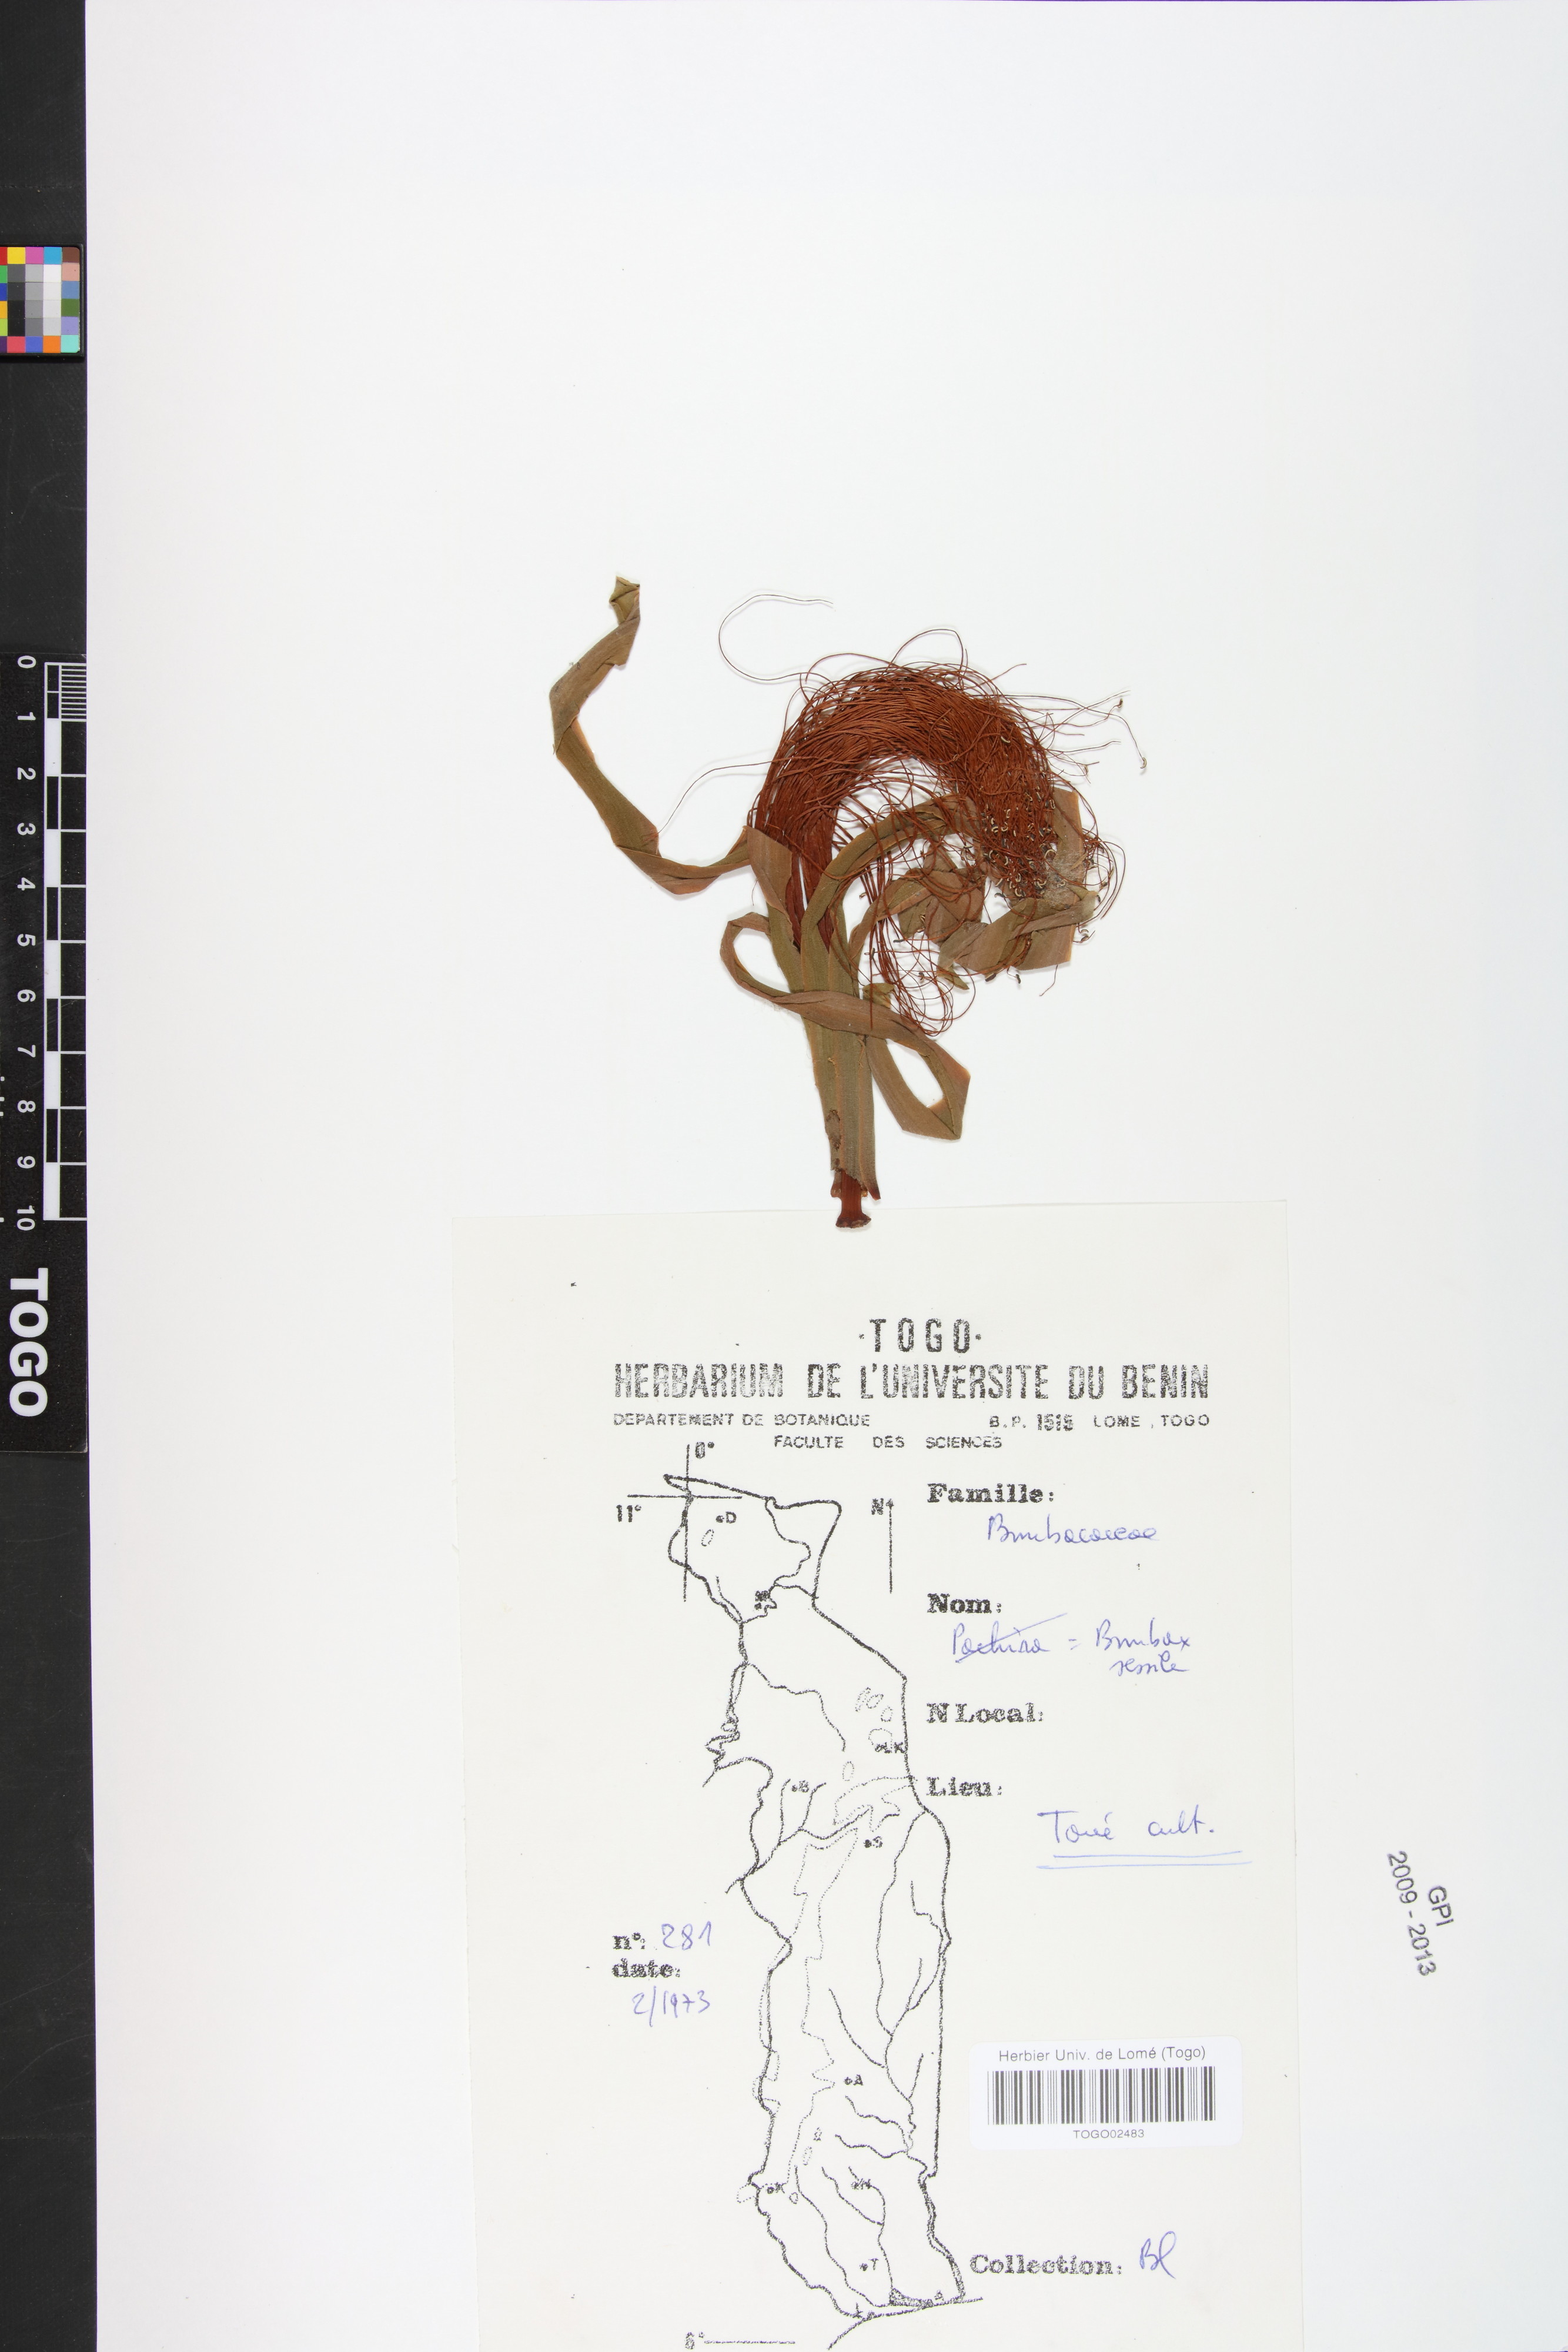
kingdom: Plantae
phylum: Tracheophyta
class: Magnoliopsida
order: Malvales
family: Malvaceae
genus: Pachira
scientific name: Pachira sessilis
